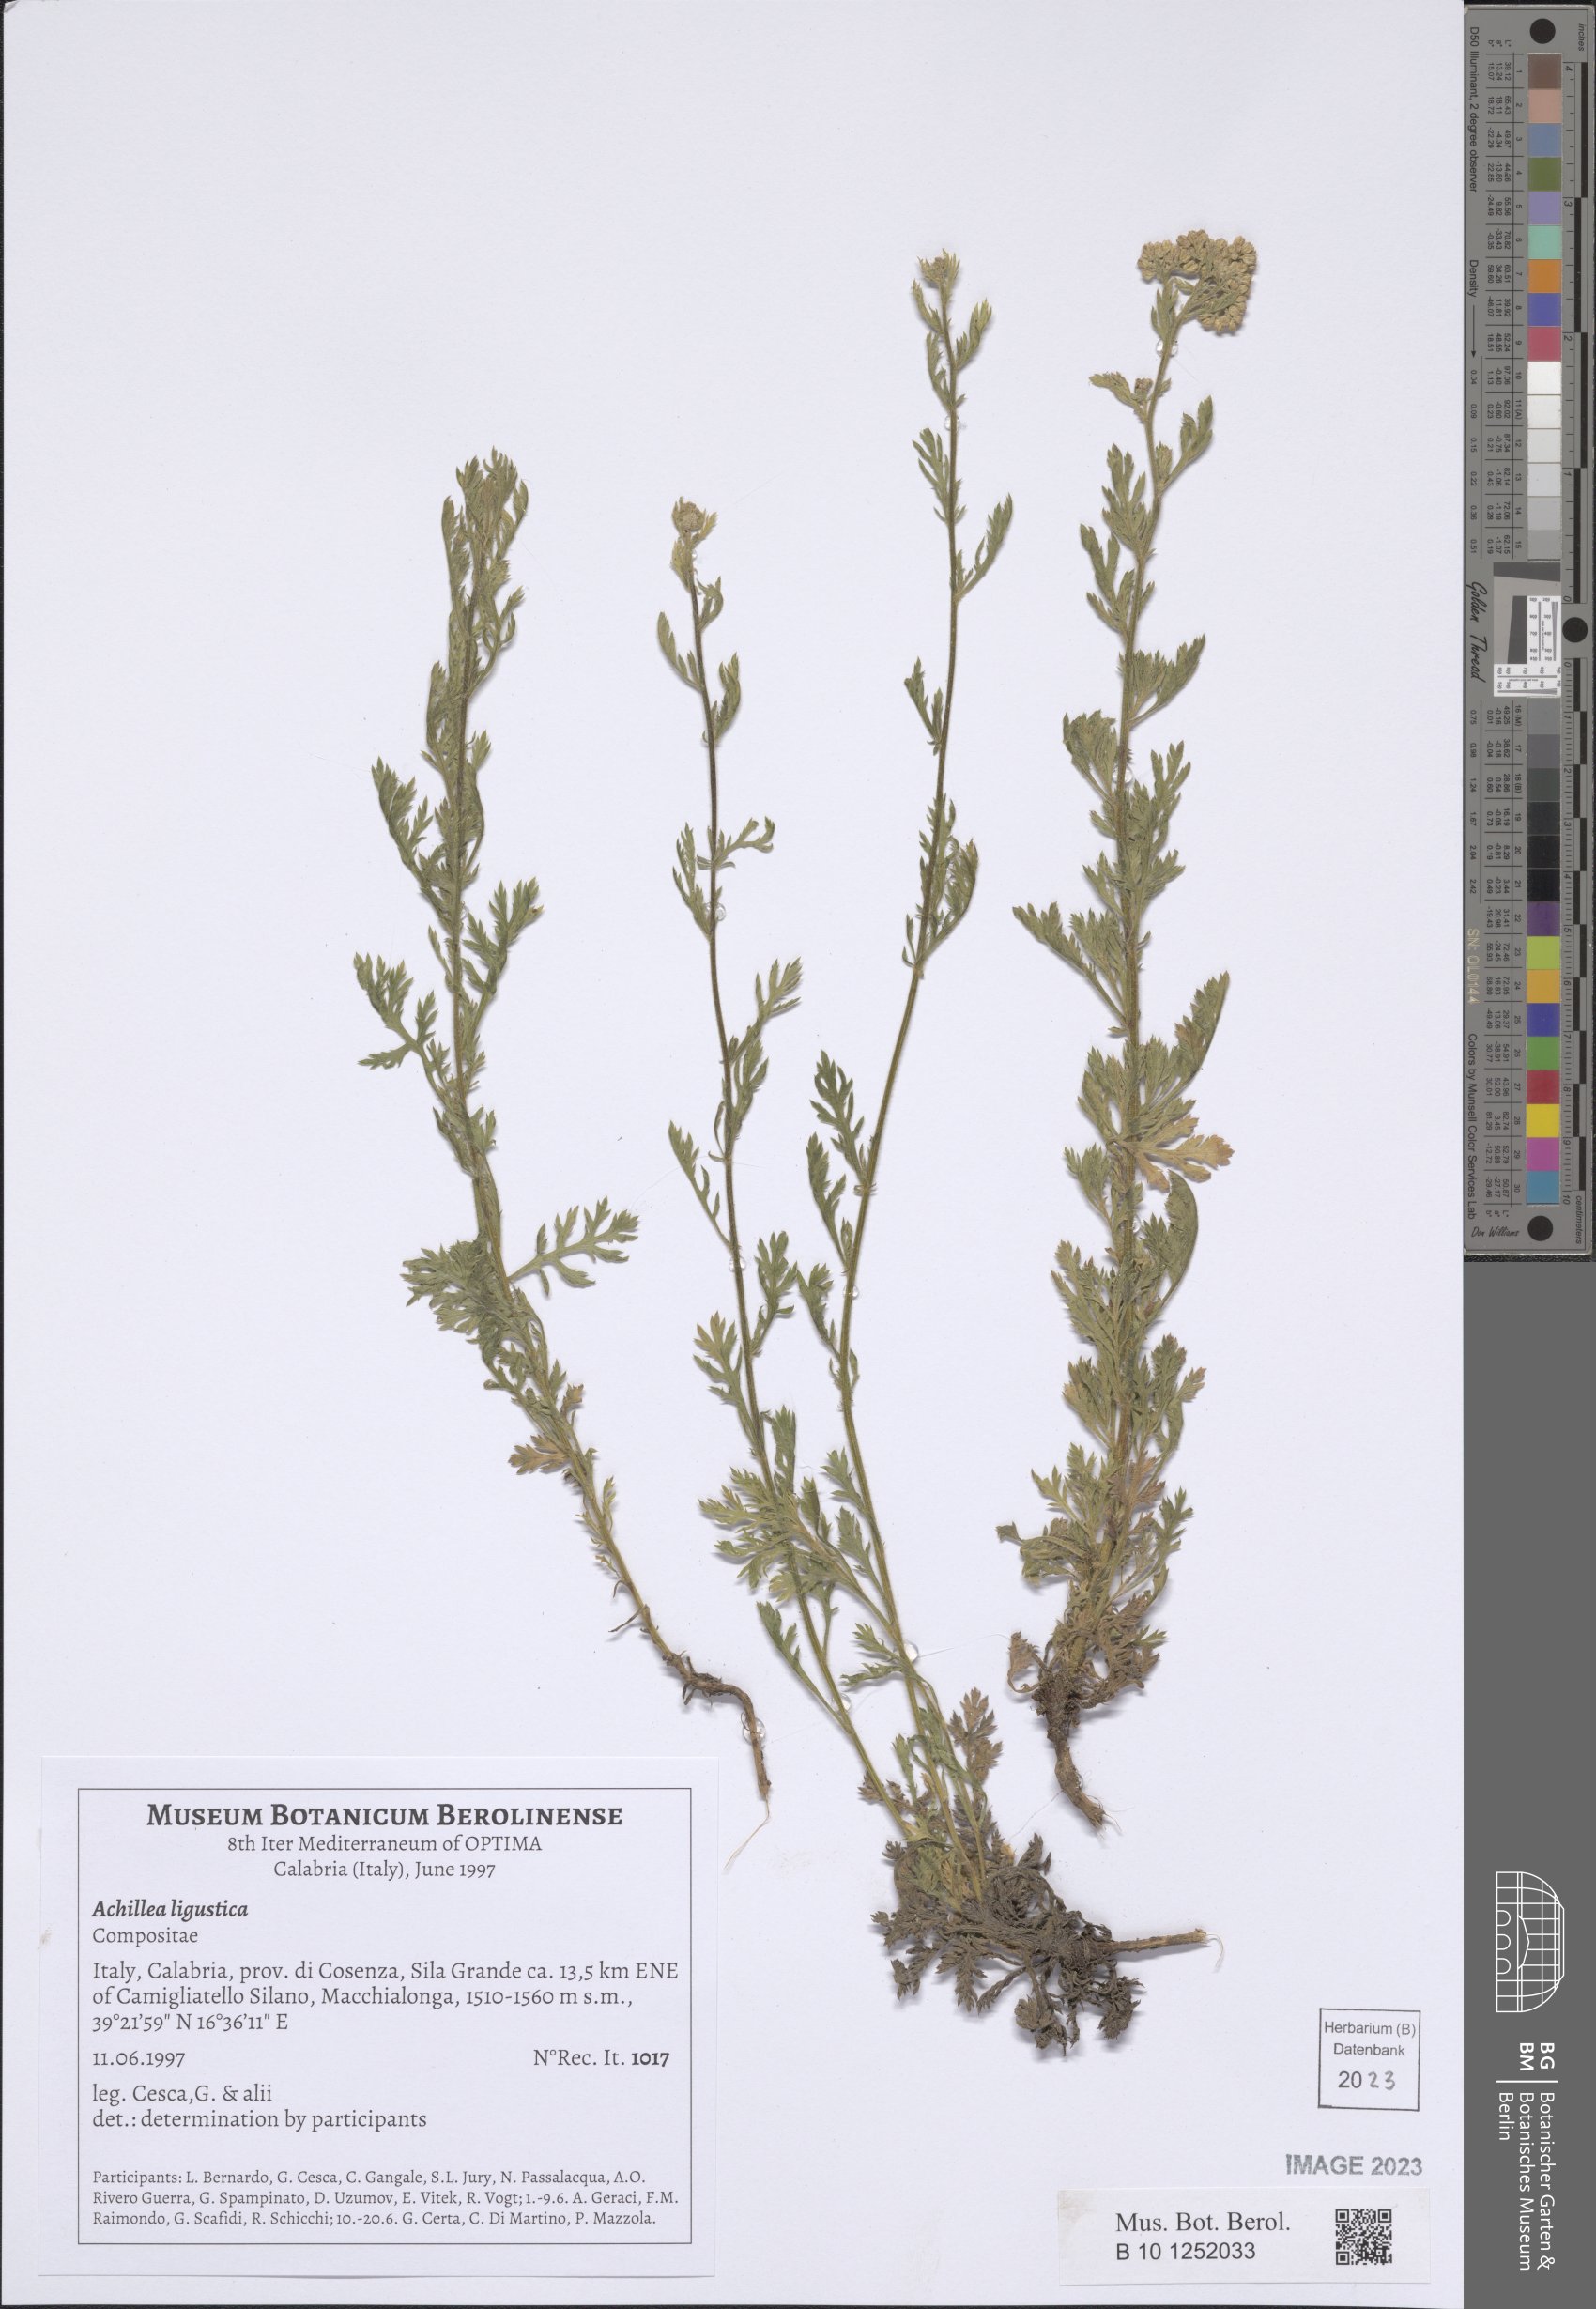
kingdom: Plantae
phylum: Tracheophyta
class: Magnoliopsida
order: Asterales
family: Asteraceae
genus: Achillea
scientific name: Achillea ligustica
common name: Southern yarrow
